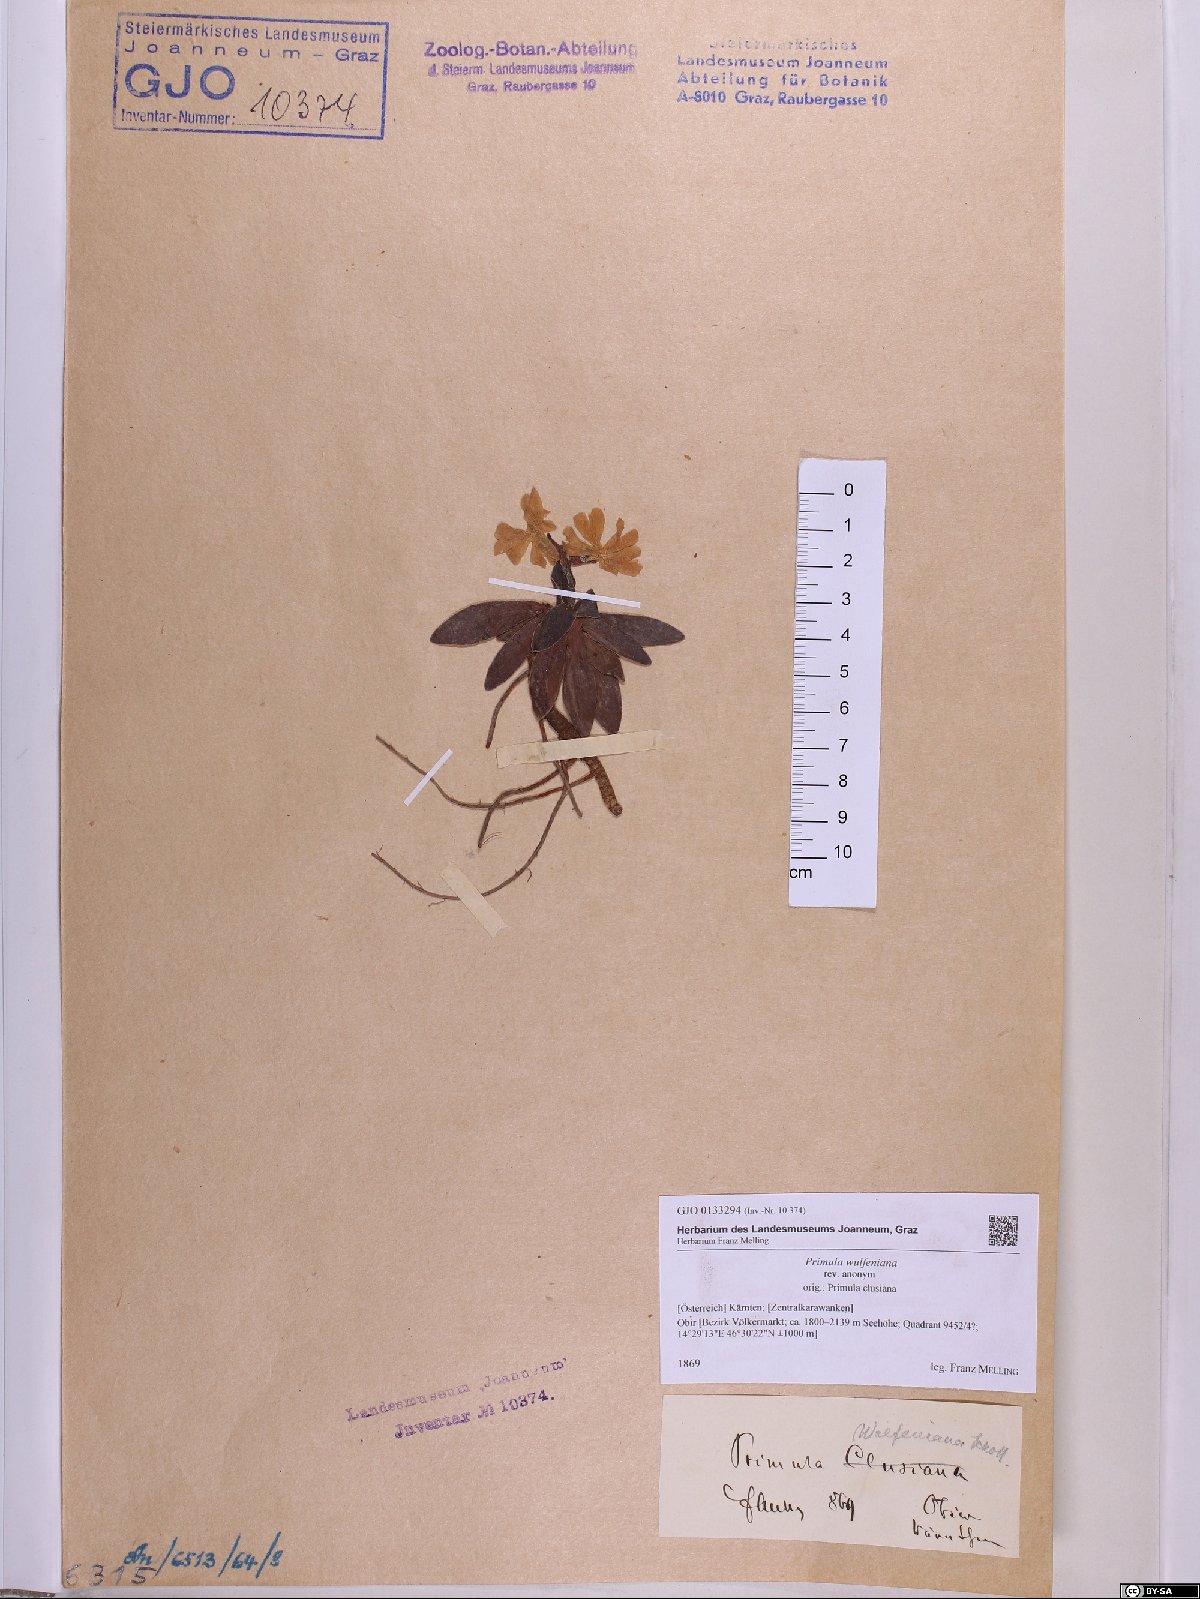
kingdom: Plantae
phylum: Tracheophyta
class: Magnoliopsida
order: Ericales
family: Primulaceae
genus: Primula
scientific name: Primula wulfeniana
